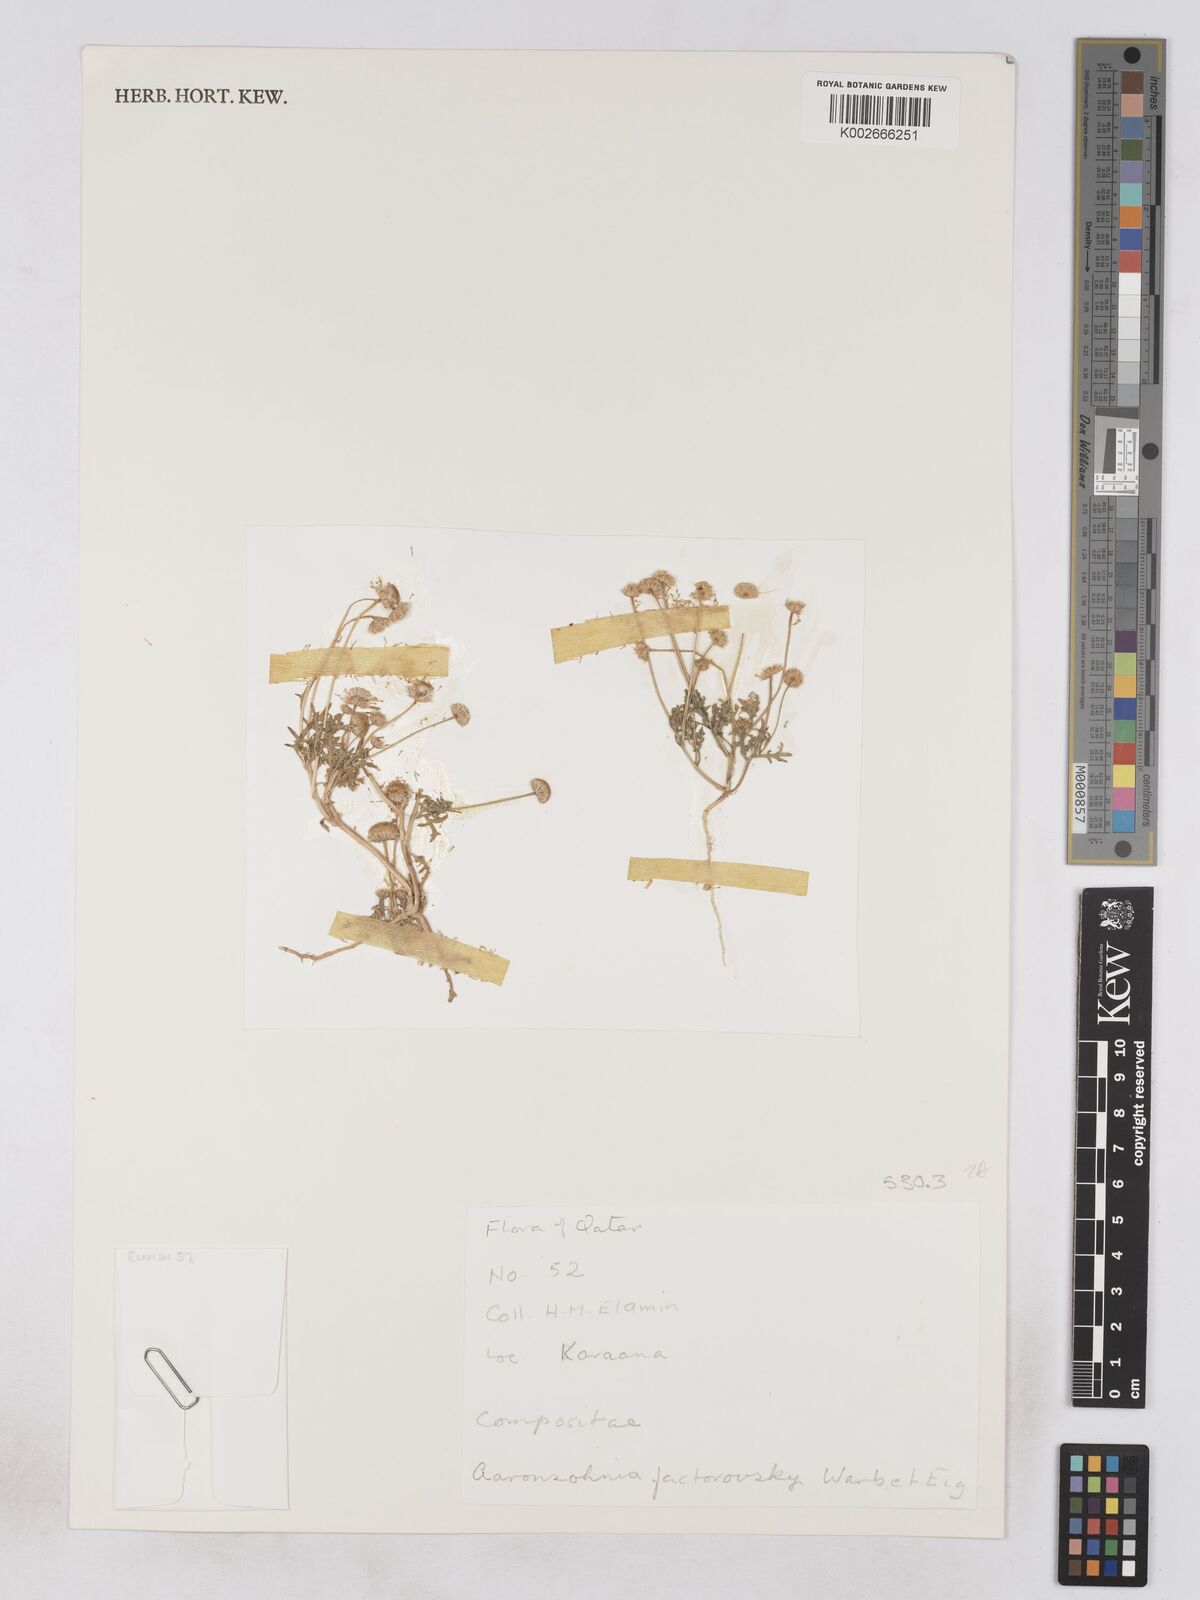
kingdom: Plantae
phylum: Tracheophyta
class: Magnoliopsida
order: Asterales
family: Asteraceae
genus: Otoglyphis
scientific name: Otoglyphis factorovskyi
